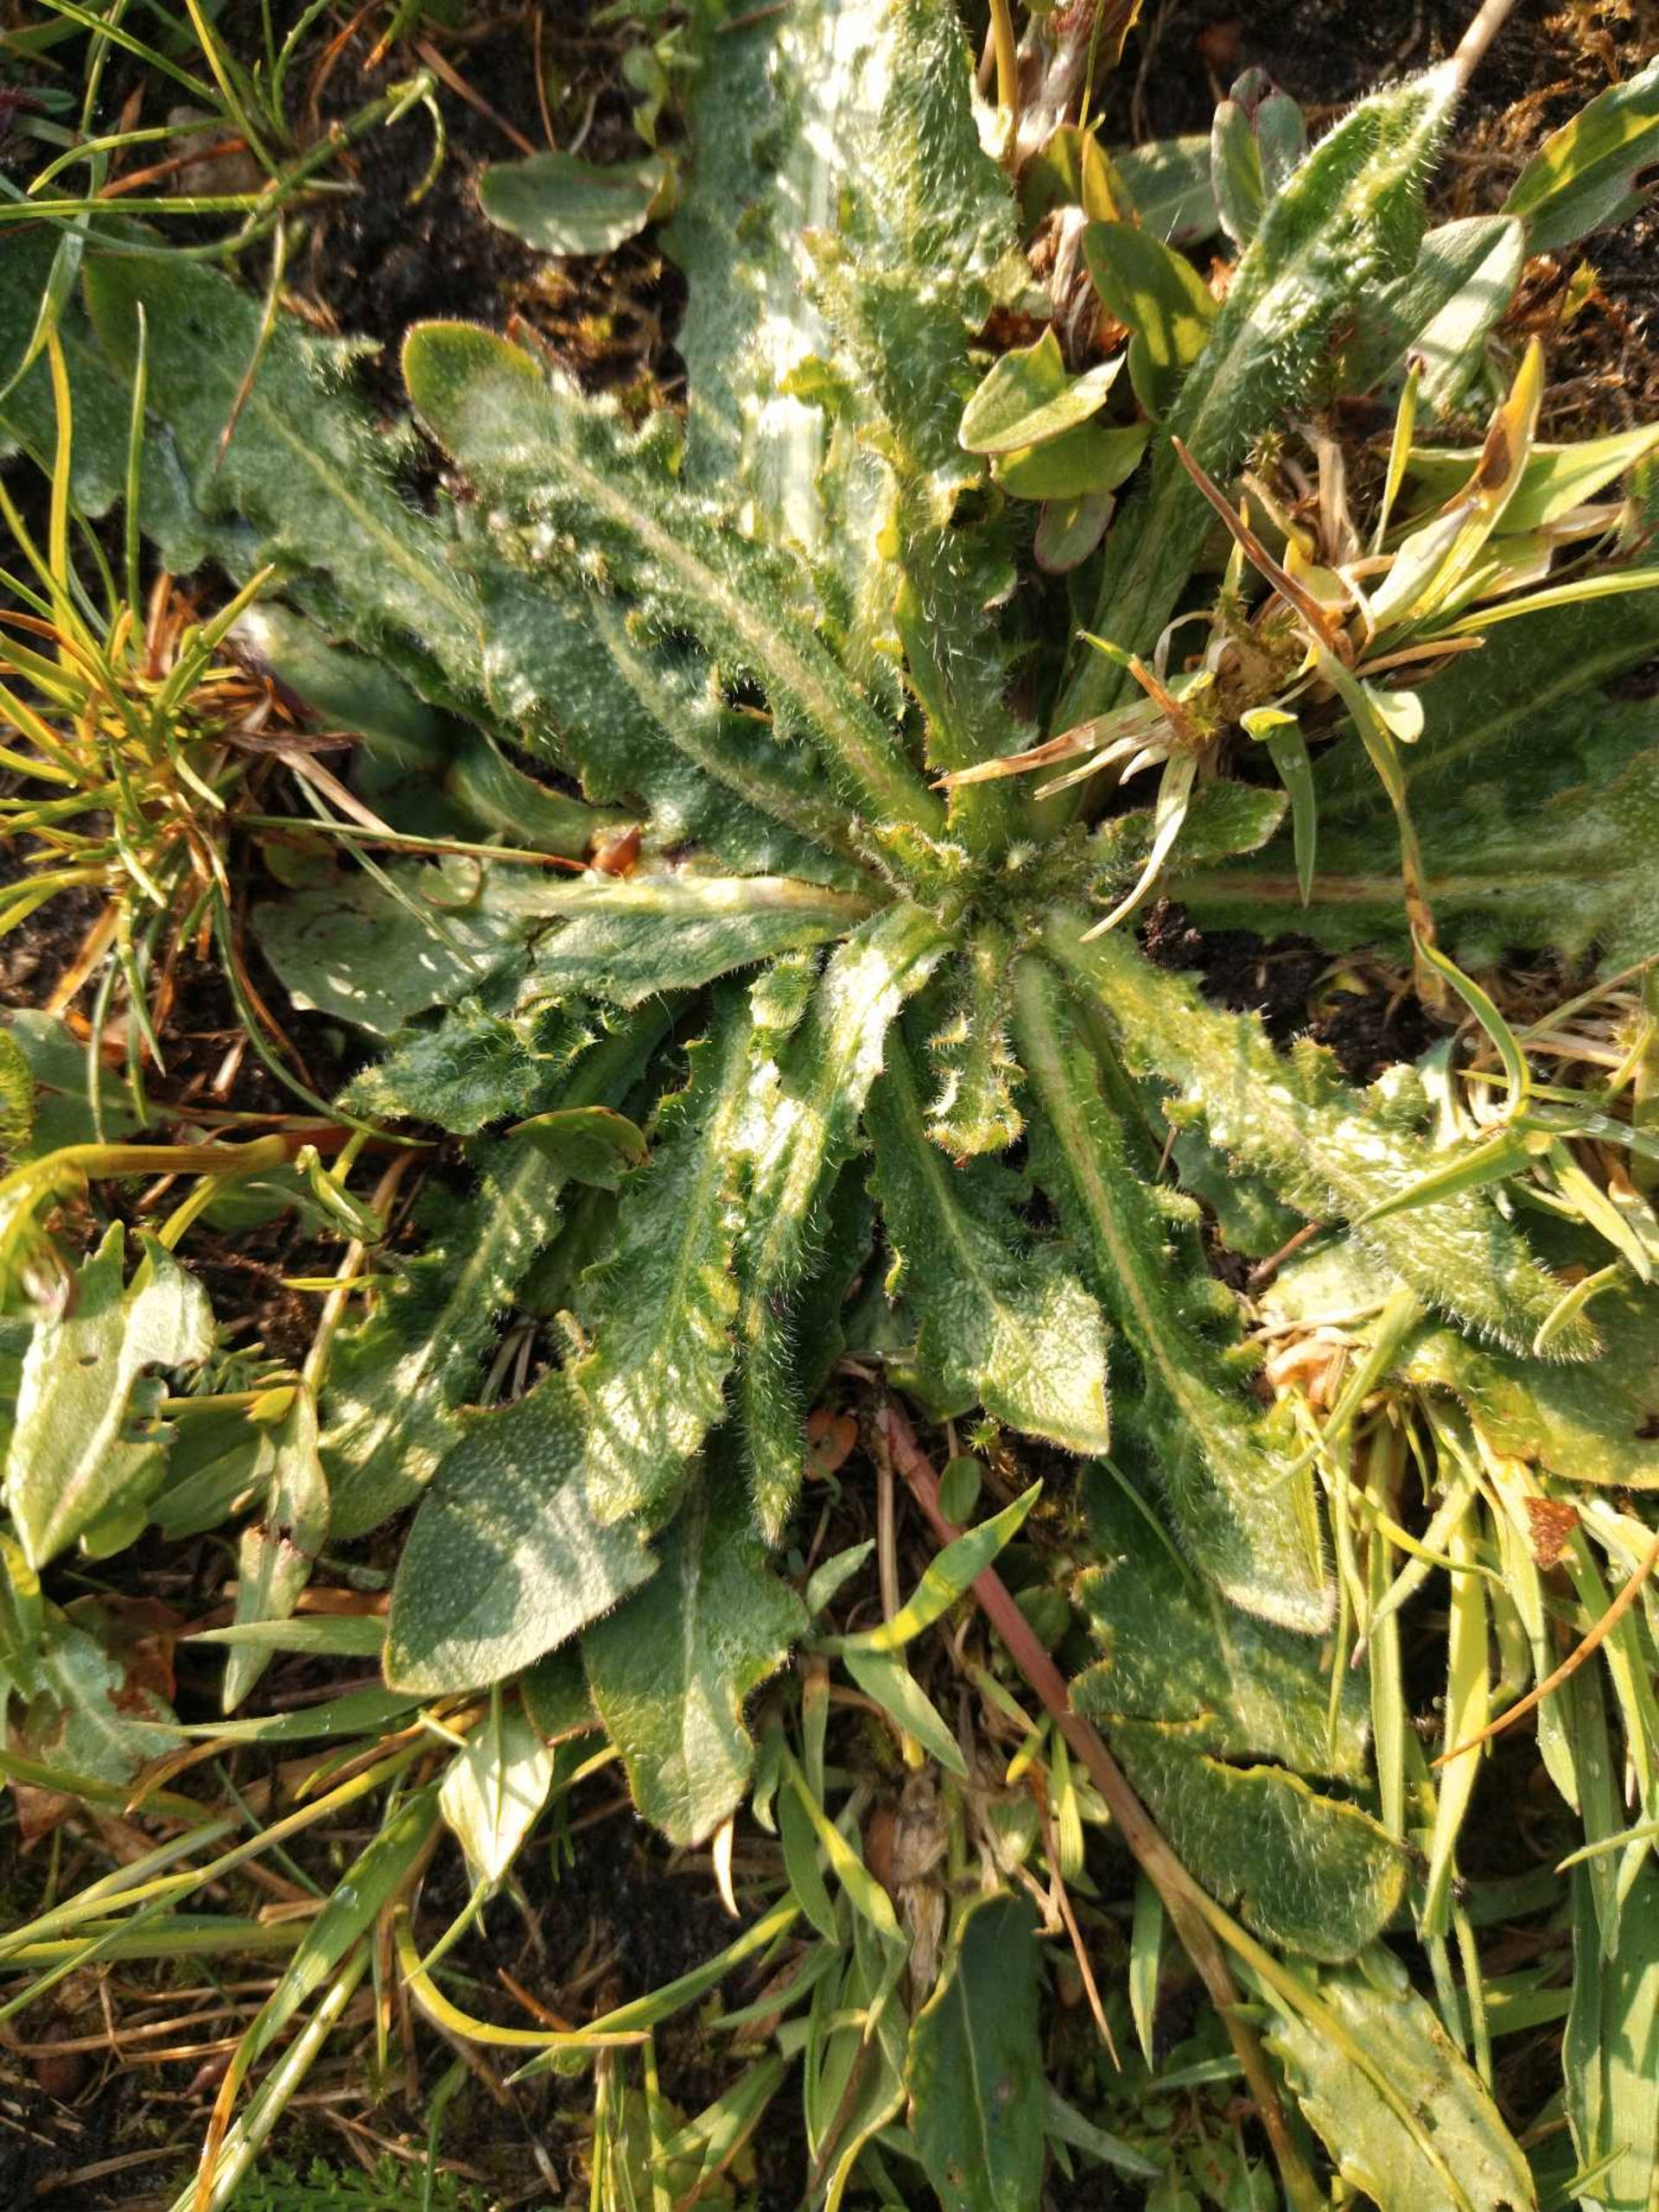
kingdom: Plantae
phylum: Tracheophyta
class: Magnoliopsida
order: Asterales
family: Asteraceae
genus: Hypochaeris
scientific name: Hypochaeris radicata
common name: Almindelig kongepen
